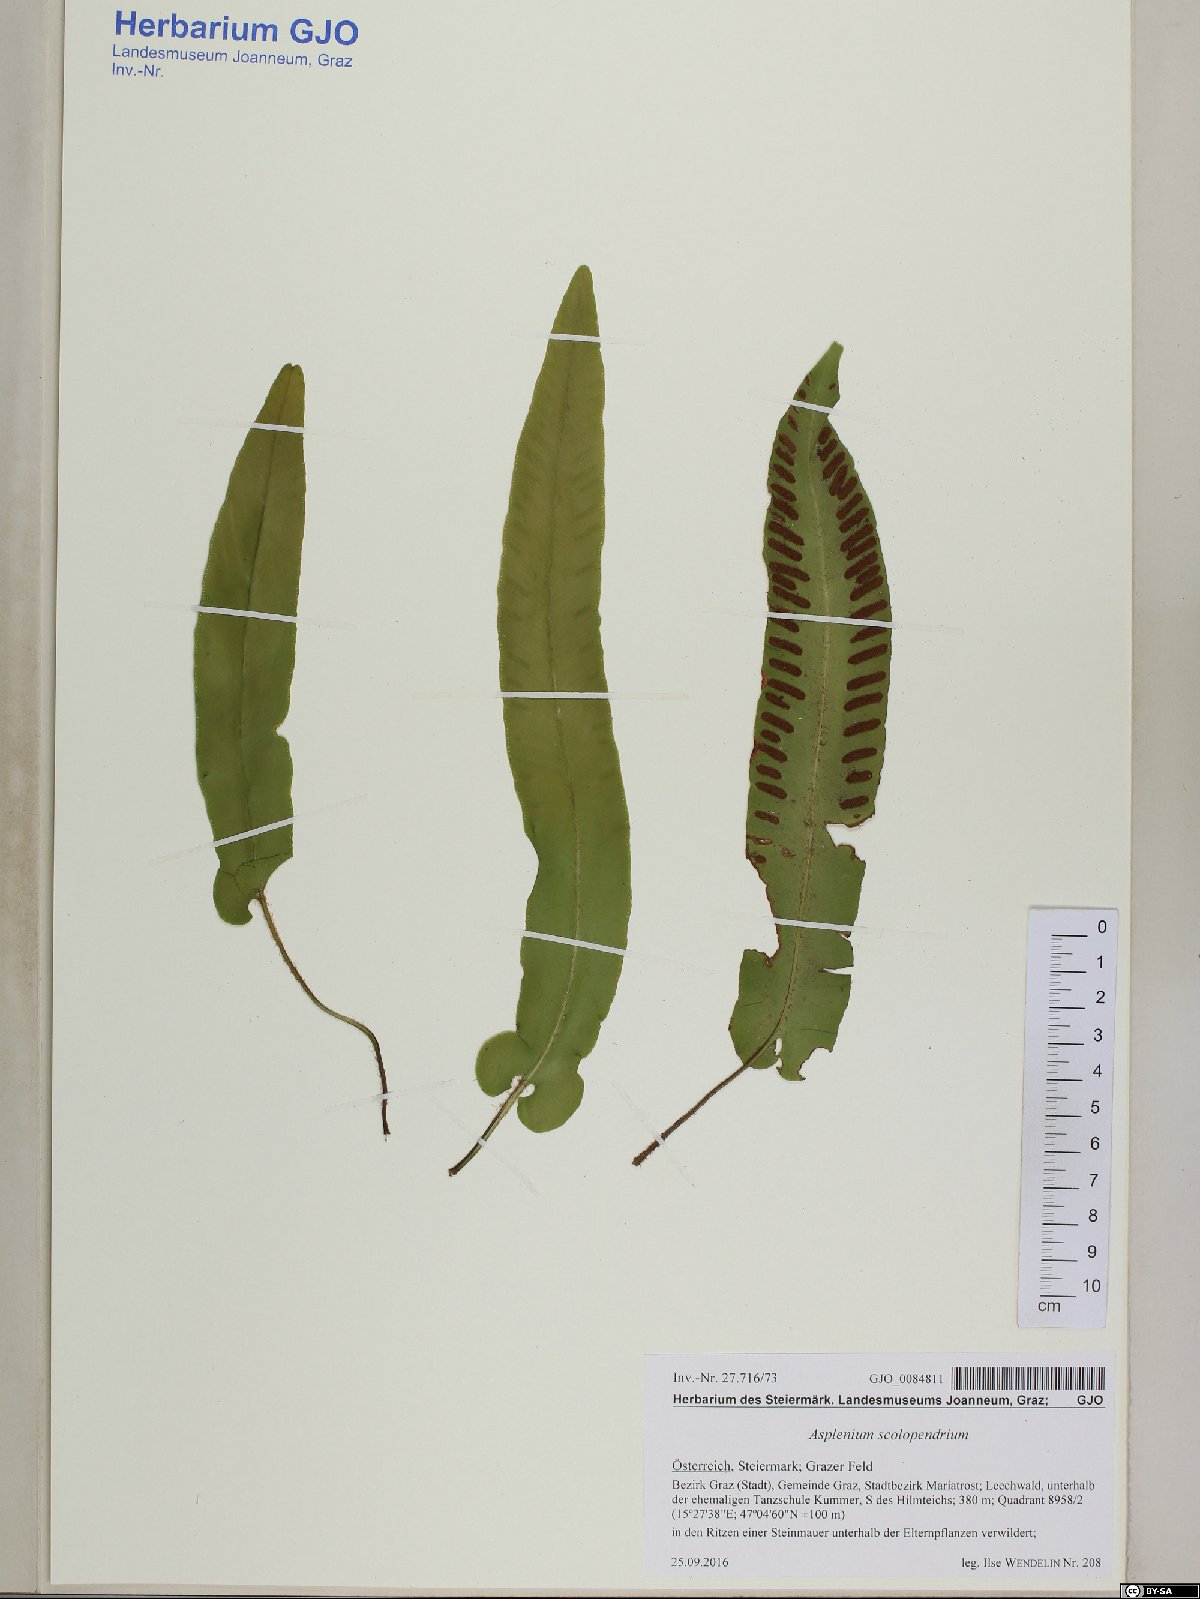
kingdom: Plantae
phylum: Tracheophyta
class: Polypodiopsida
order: Polypodiales
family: Aspleniaceae
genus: Asplenium
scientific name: Asplenium scolopendrium
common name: Hart's-tongue fern
